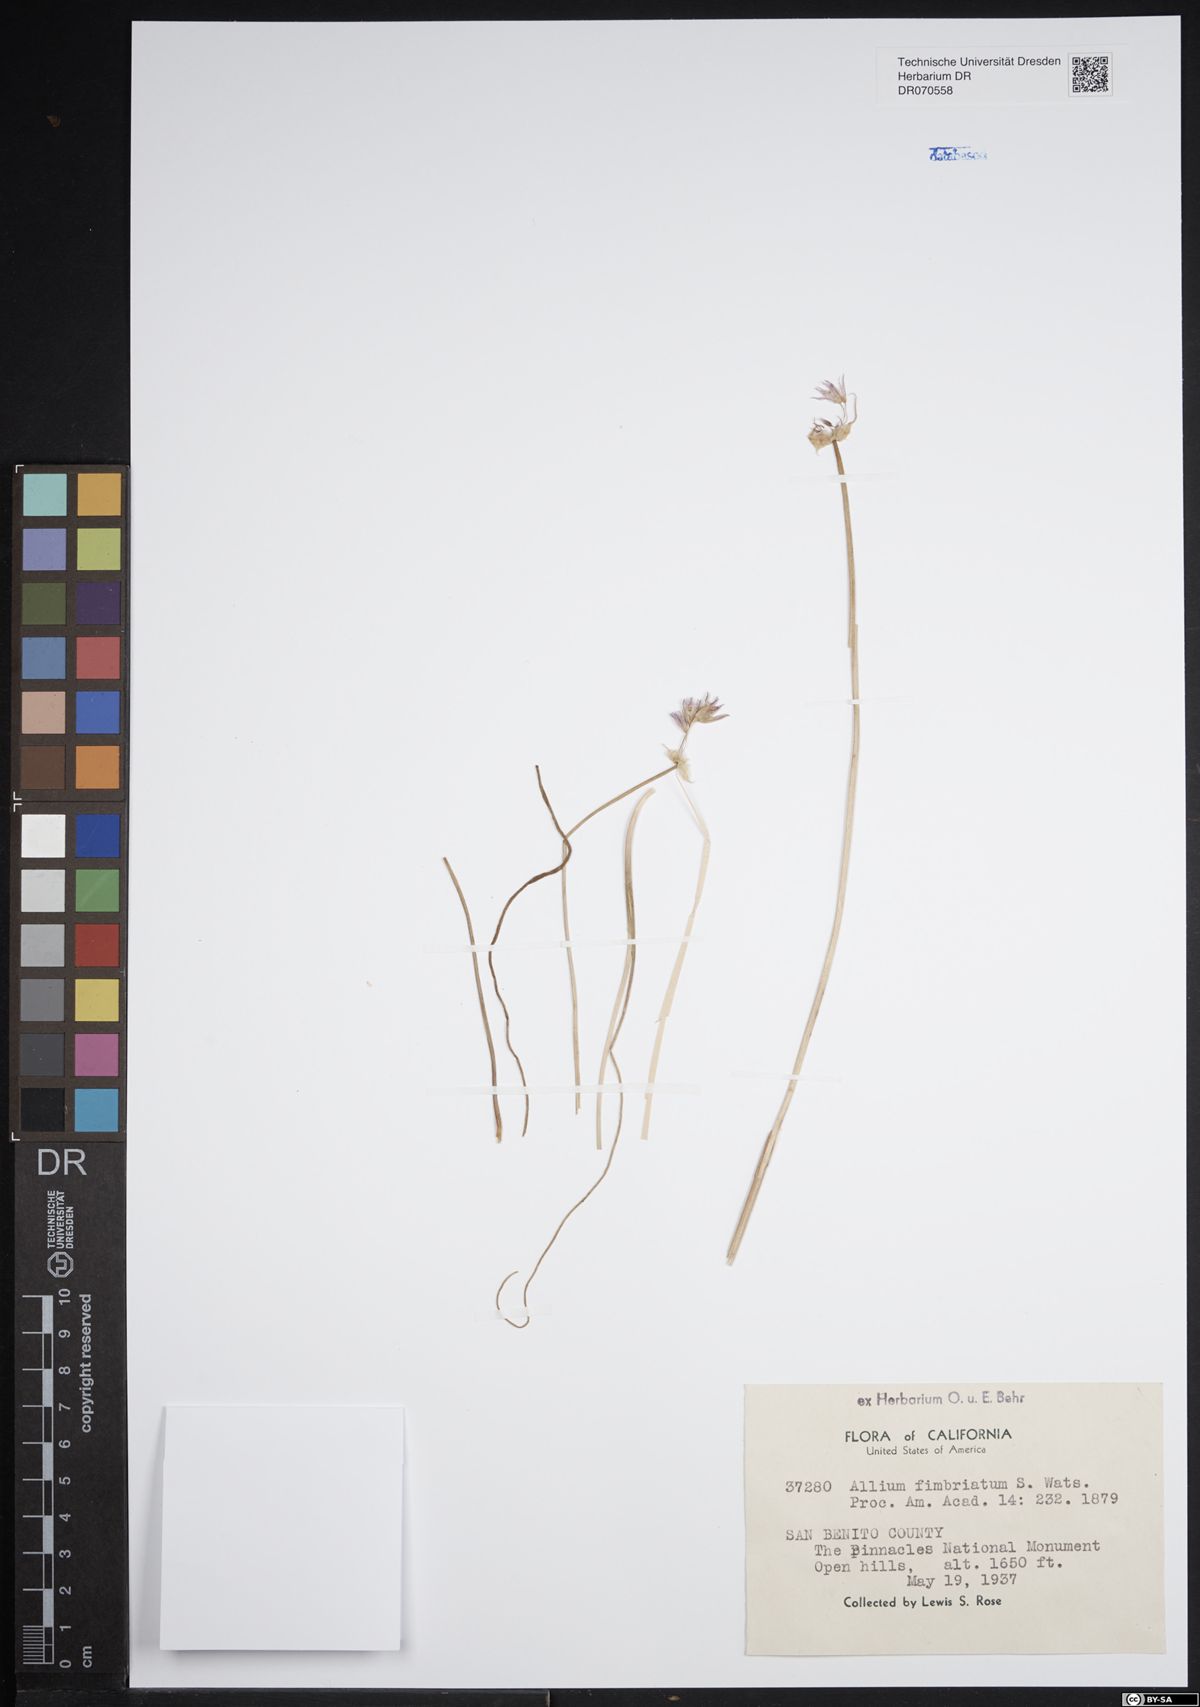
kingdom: Plantae
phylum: Tracheophyta
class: Liliopsida
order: Asparagales
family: Amaryllidaceae
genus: Allium
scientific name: Allium fimbriatum
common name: Fringed onion
